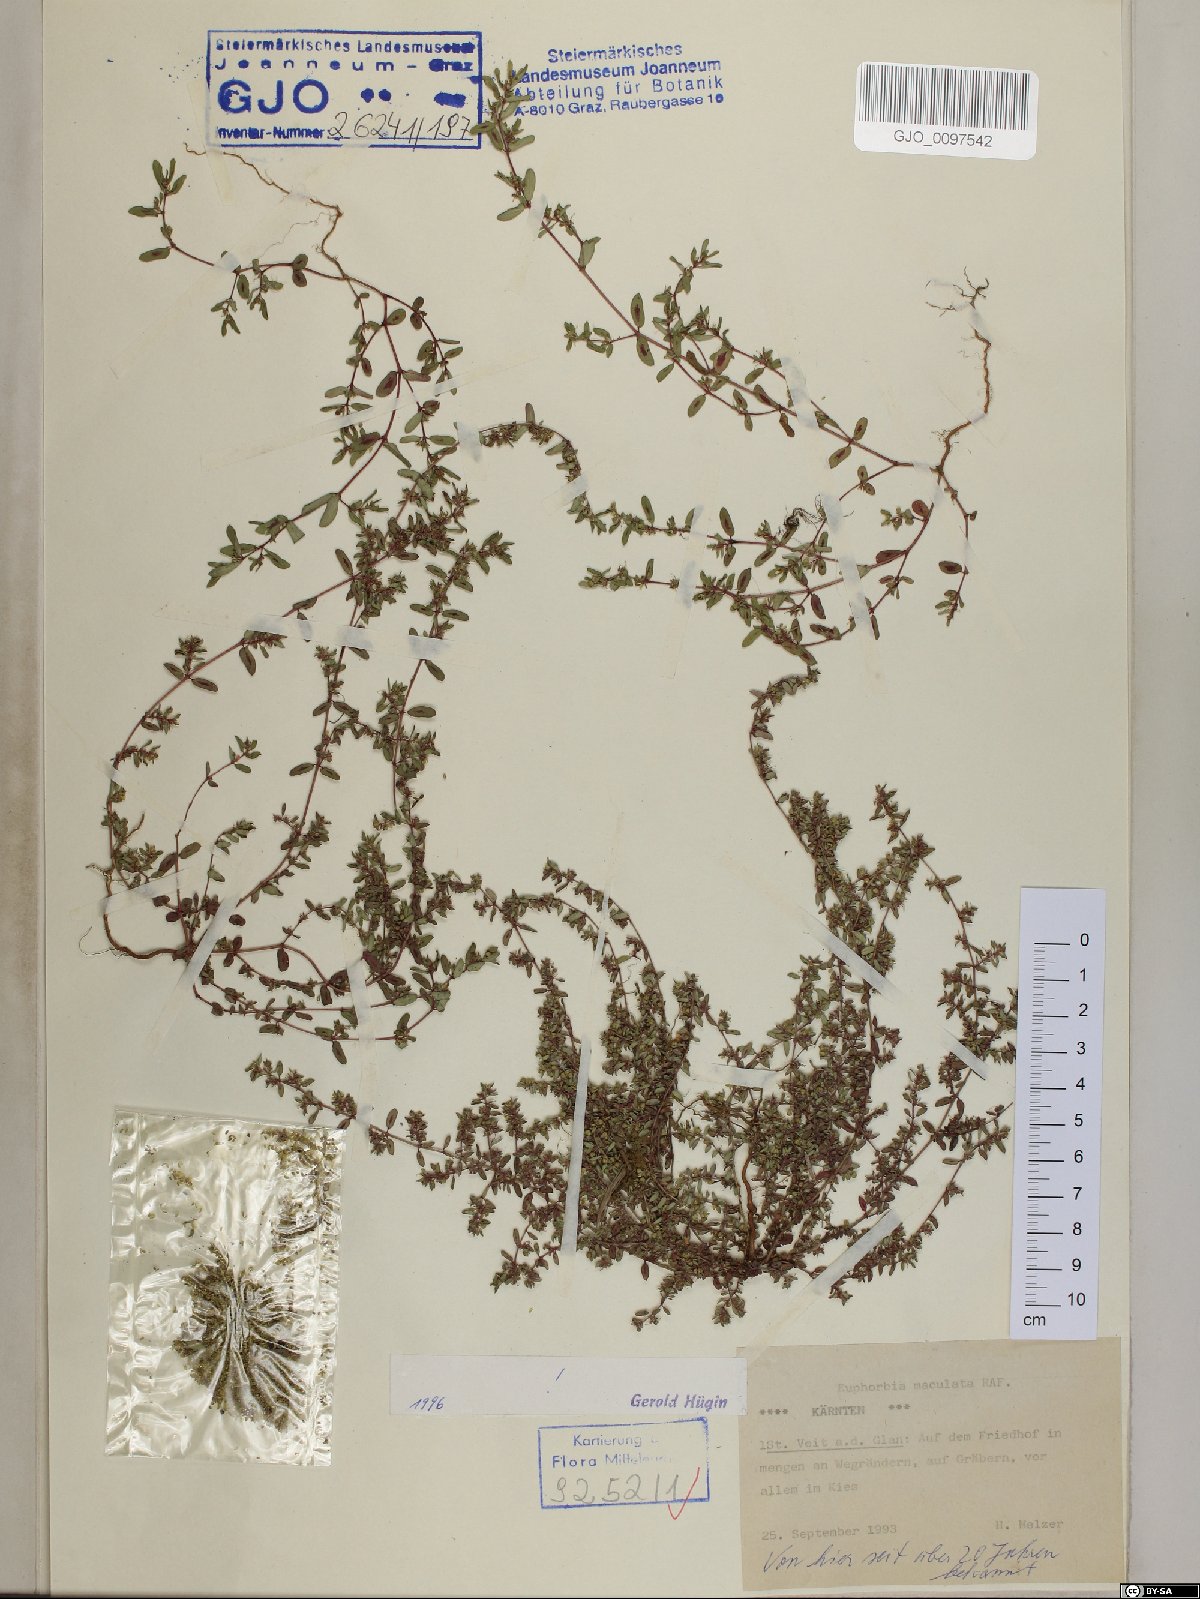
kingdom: Plantae
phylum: Tracheophyta
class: Magnoliopsida
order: Malpighiales
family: Euphorbiaceae
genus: Euphorbia
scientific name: Euphorbia maculata
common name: Spotted spurge
